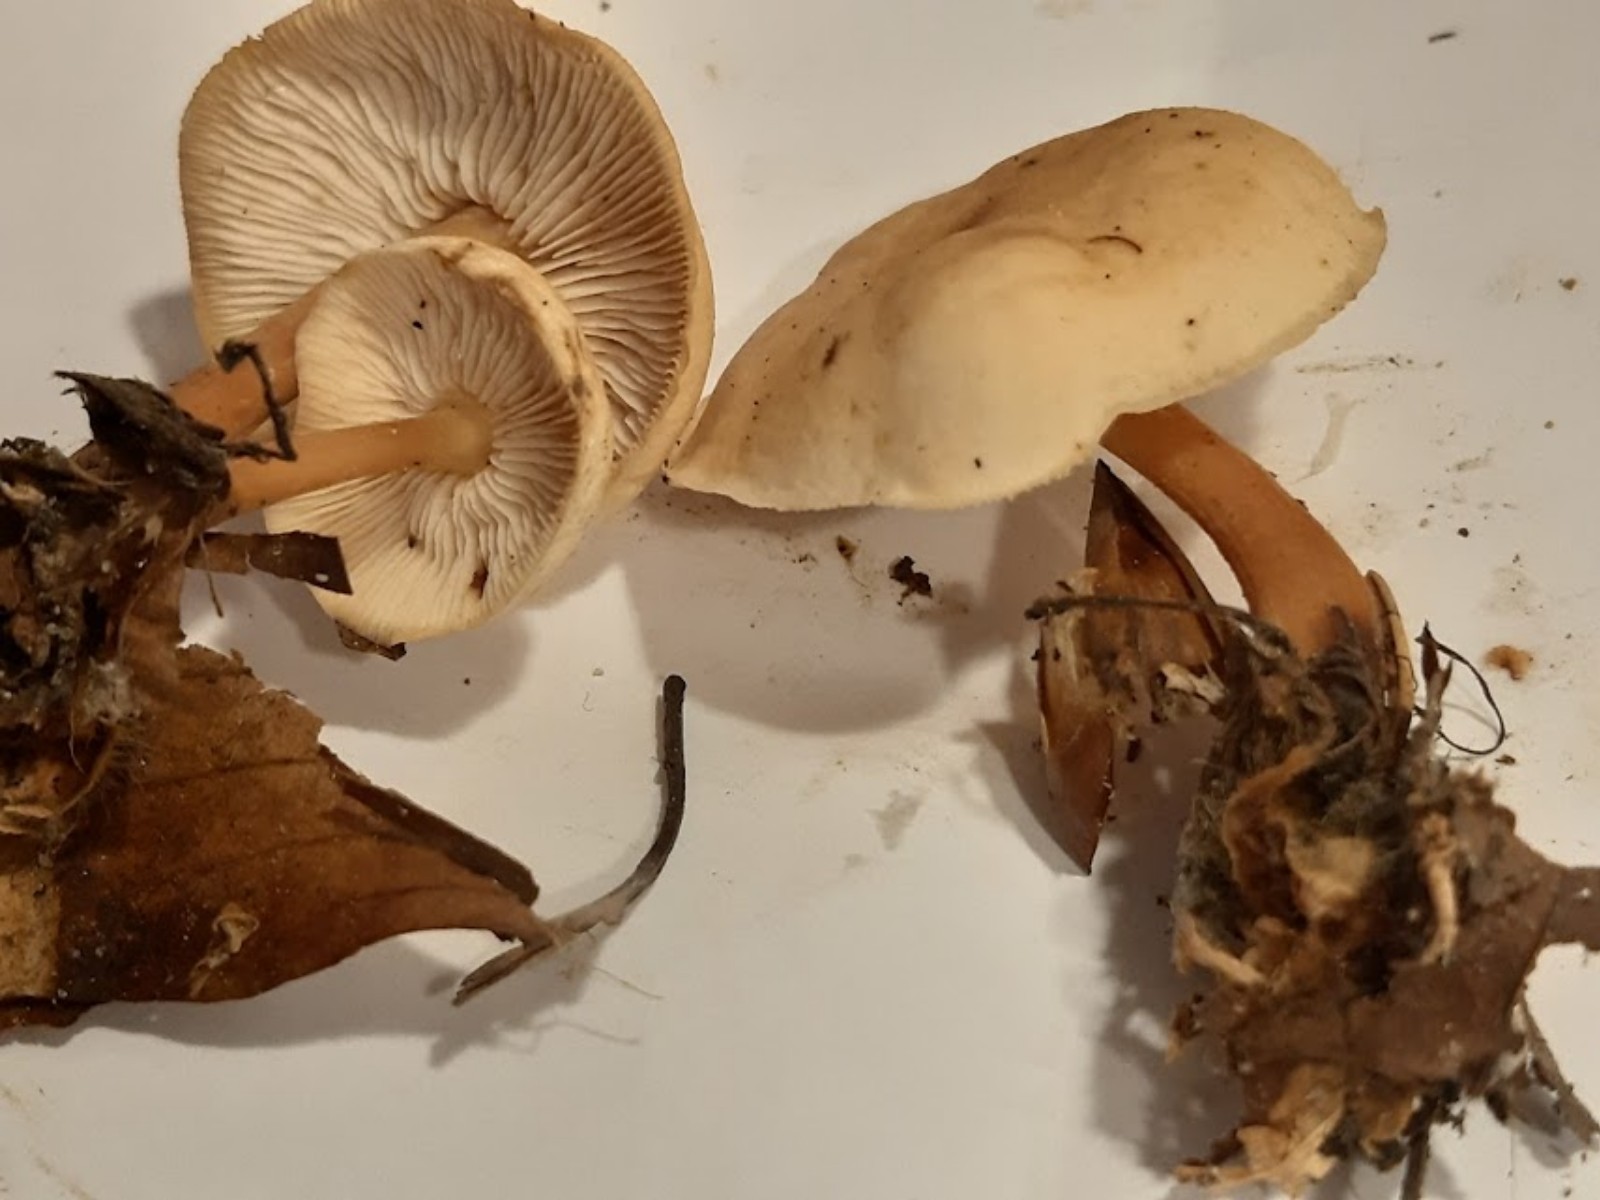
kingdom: Fungi
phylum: Basidiomycota
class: Agaricomycetes
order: Agaricales
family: Omphalotaceae
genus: Gymnopus
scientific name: Gymnopus aquosus
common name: bleg fladhat
